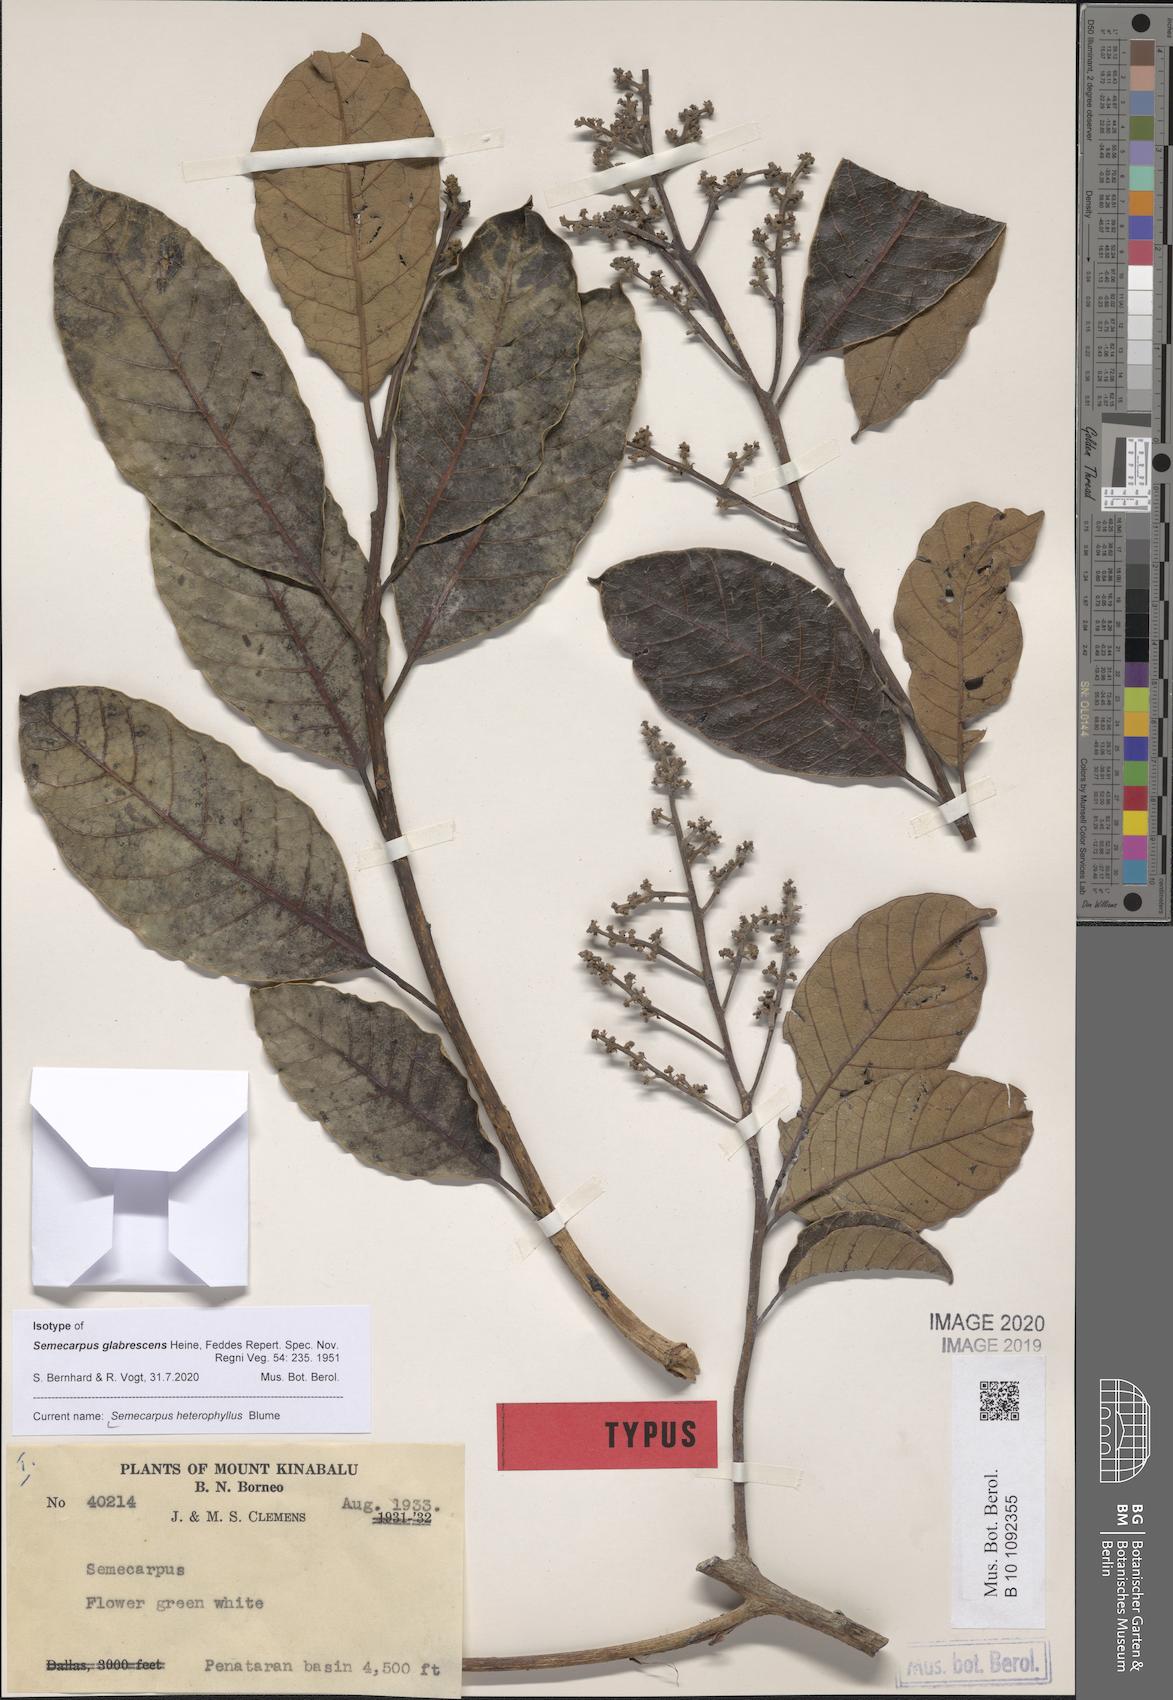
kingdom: Plantae
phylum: Tracheophyta
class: Magnoliopsida
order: Sapindales
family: Anacardiaceae
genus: Semecarpus
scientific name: Semecarpus heterophyllus
